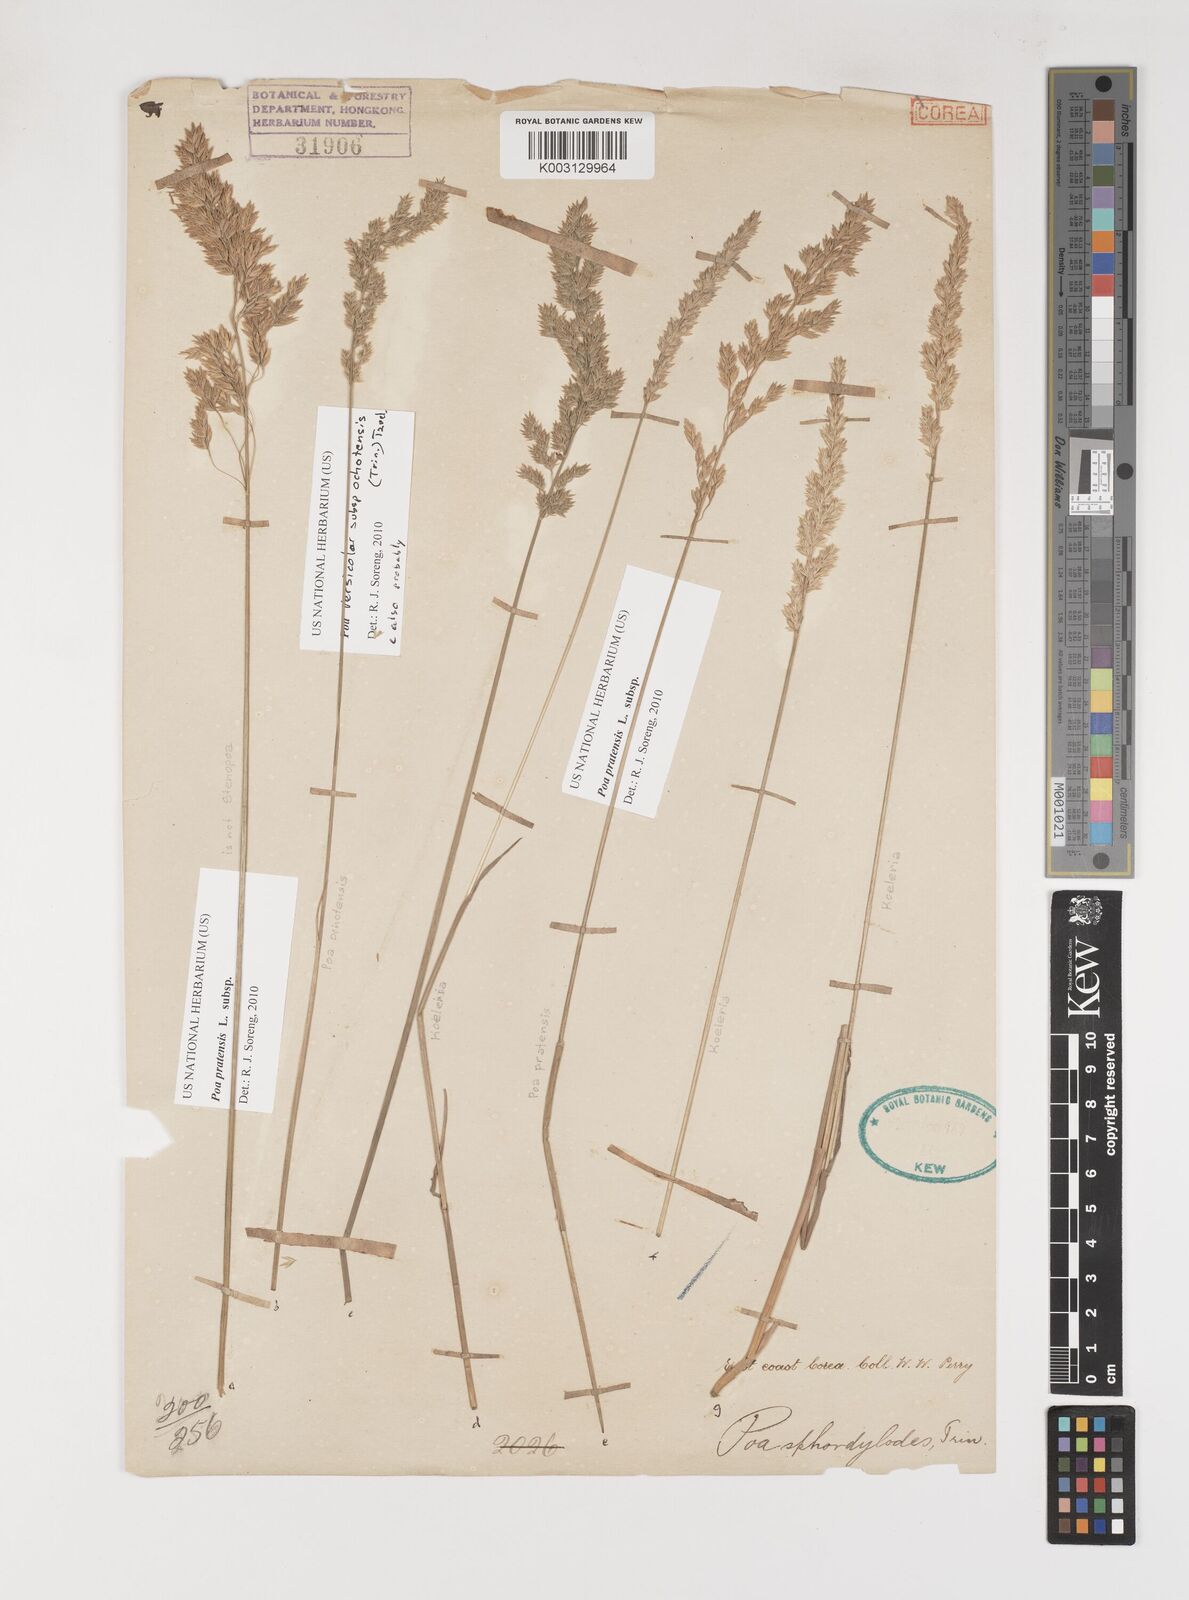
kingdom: Plantae
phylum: Tracheophyta
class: Liliopsida
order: Poales
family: Poaceae
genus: Poa
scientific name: Poa versicolor
